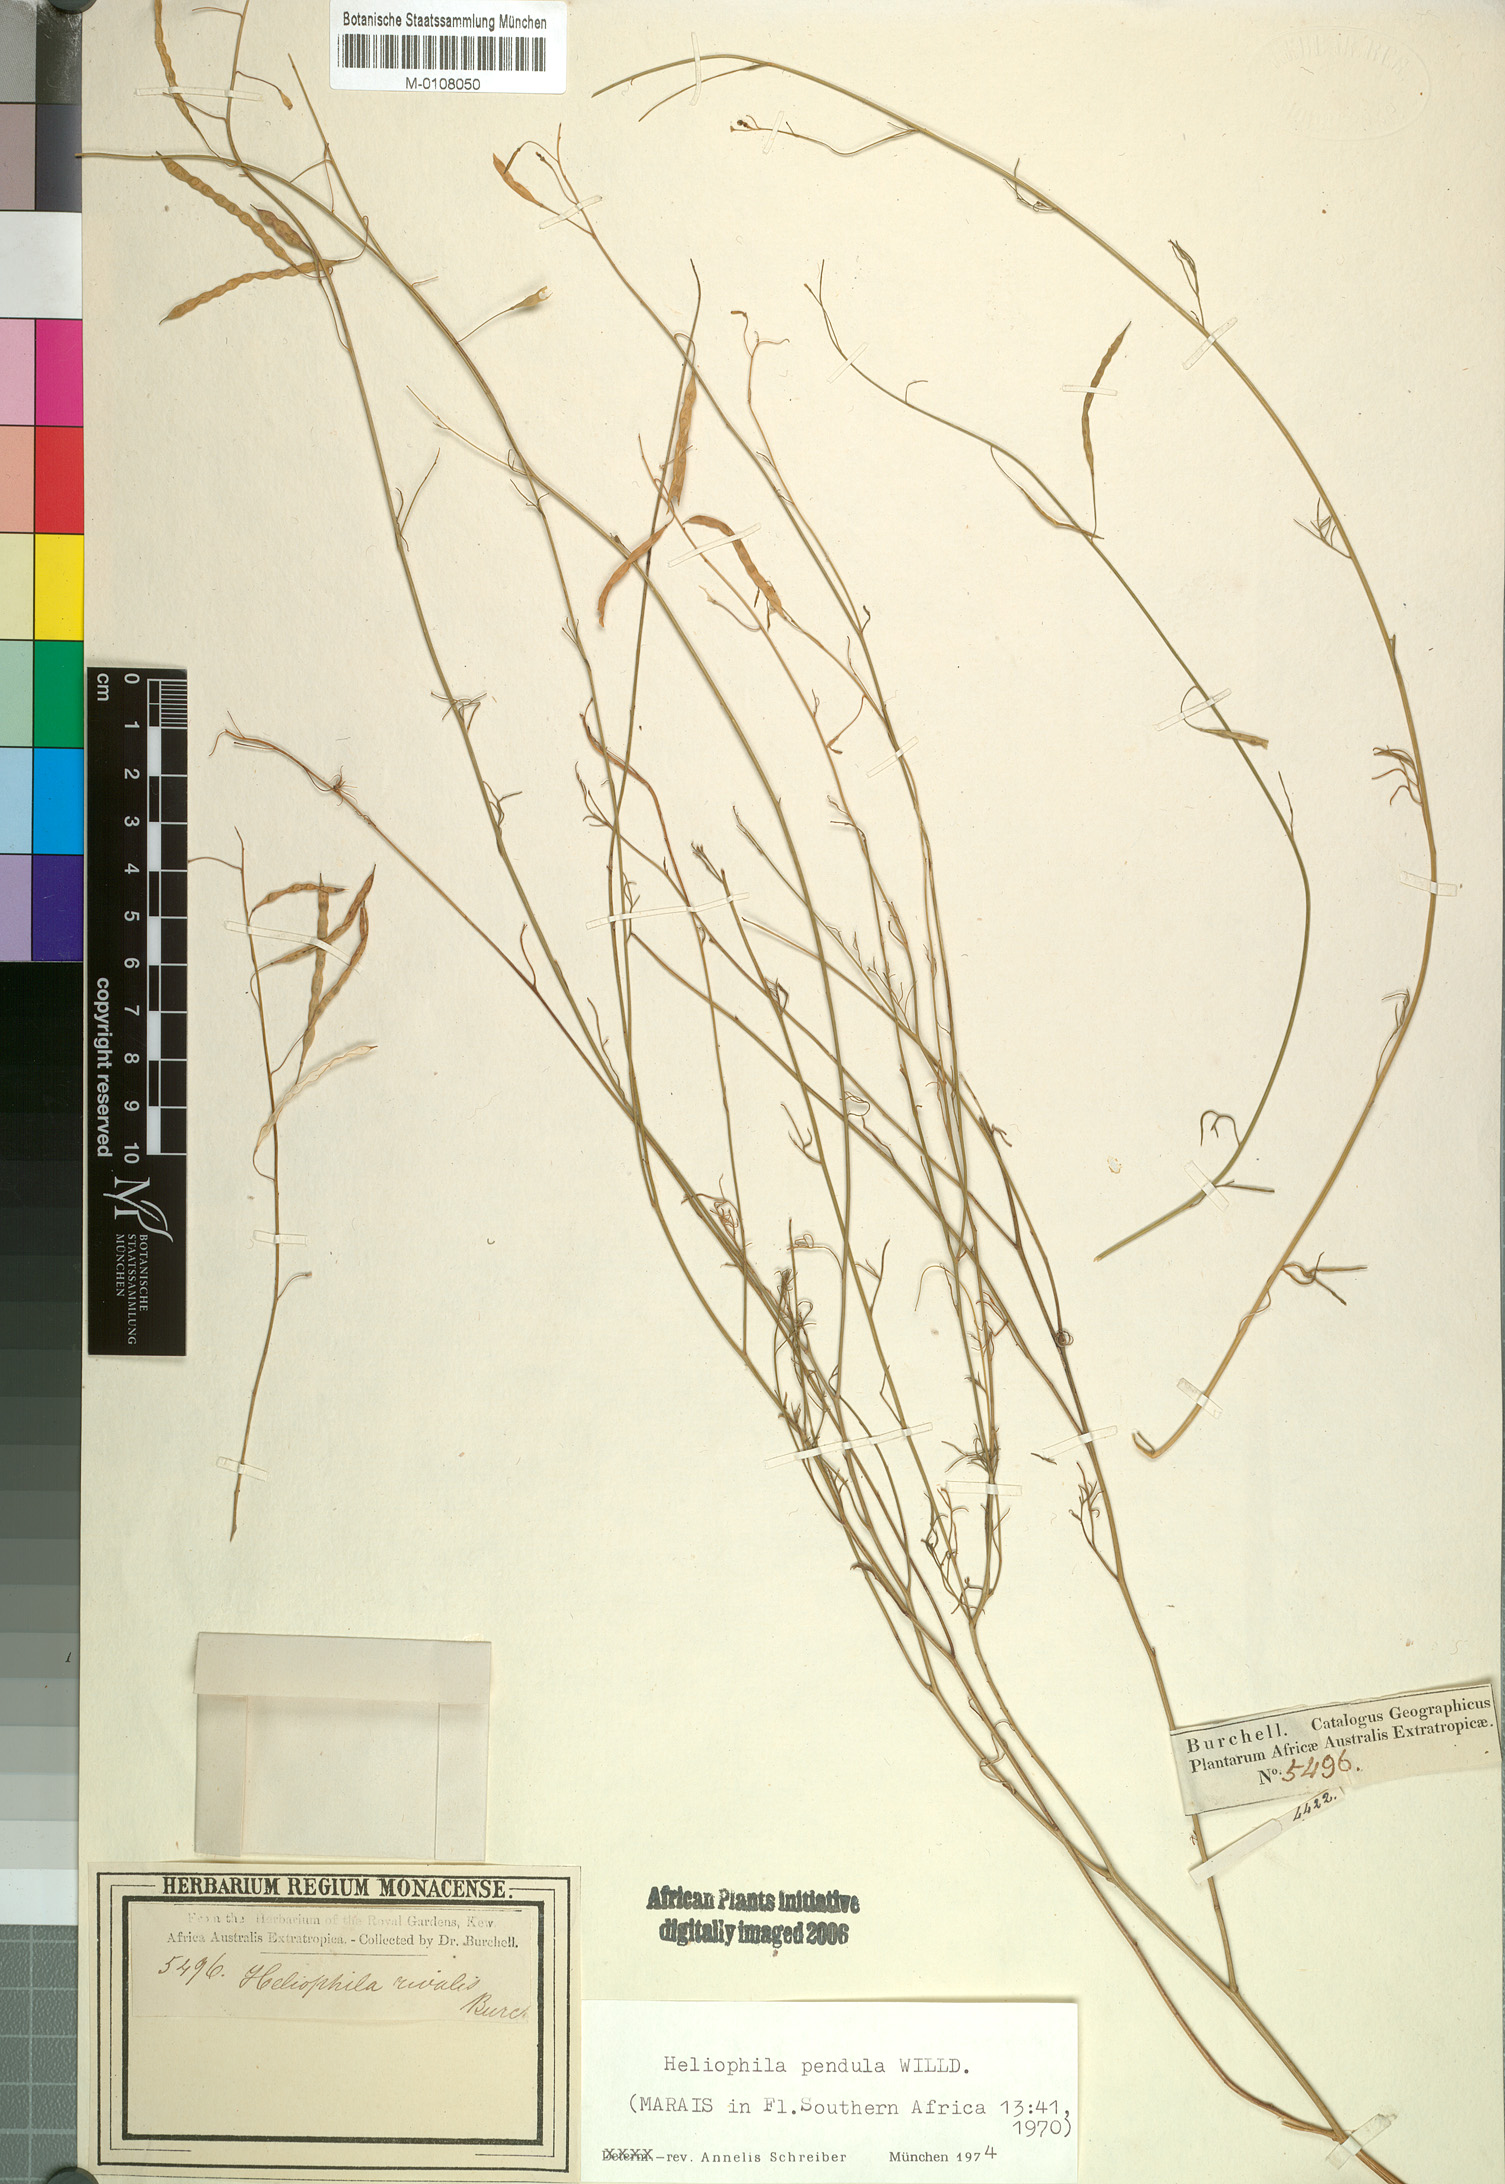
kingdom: Plantae
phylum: Tracheophyta
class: Magnoliopsida
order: Brassicales
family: Brassicaceae
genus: Heliophila
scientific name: Heliophila pendula
